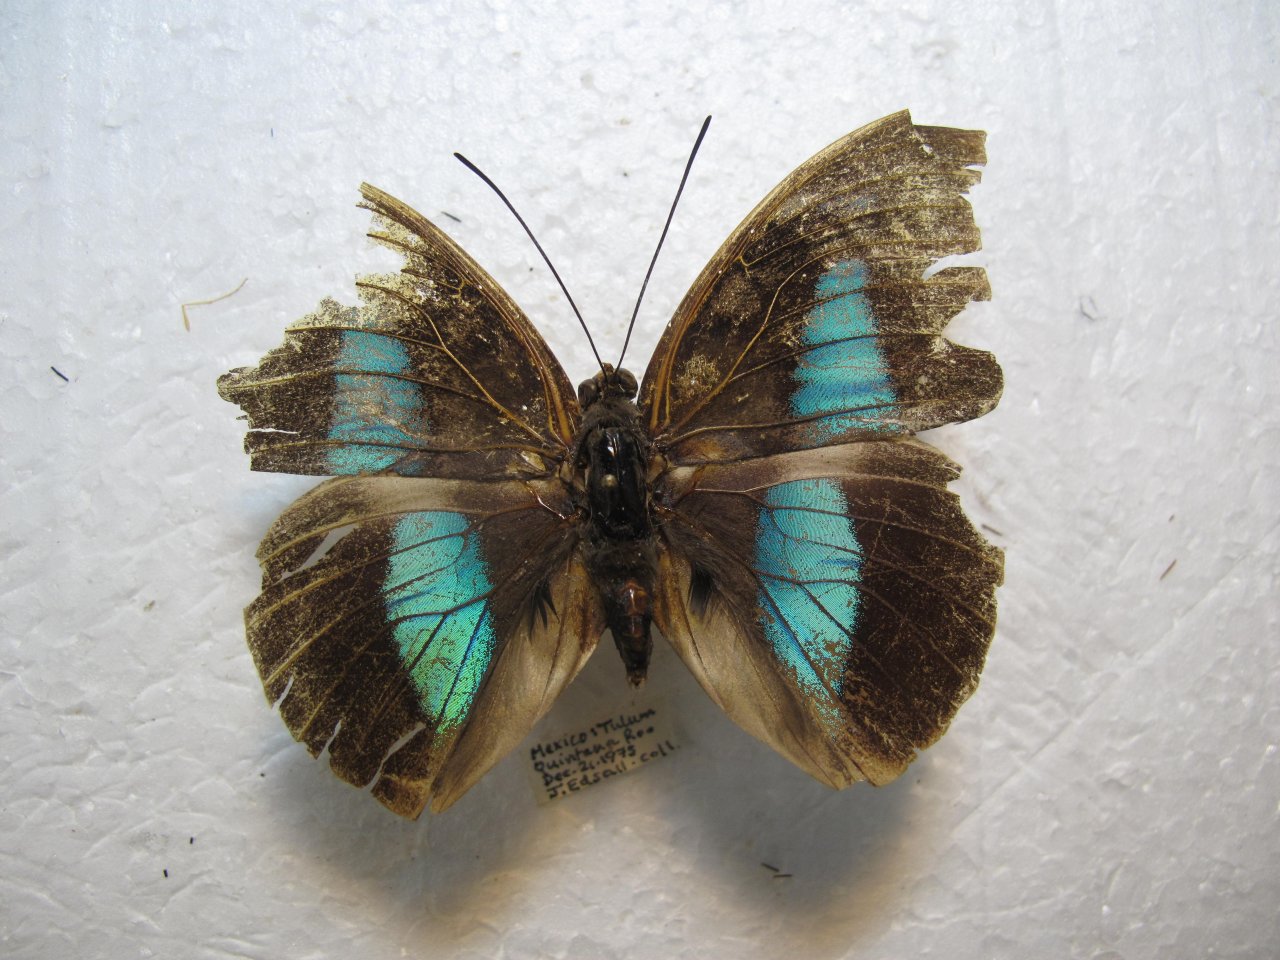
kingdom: Animalia
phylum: Arthropoda
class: Insecta
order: Lepidoptera
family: Nymphalidae
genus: Prepona
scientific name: Prepona demophon
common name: One-spotted Prepona
